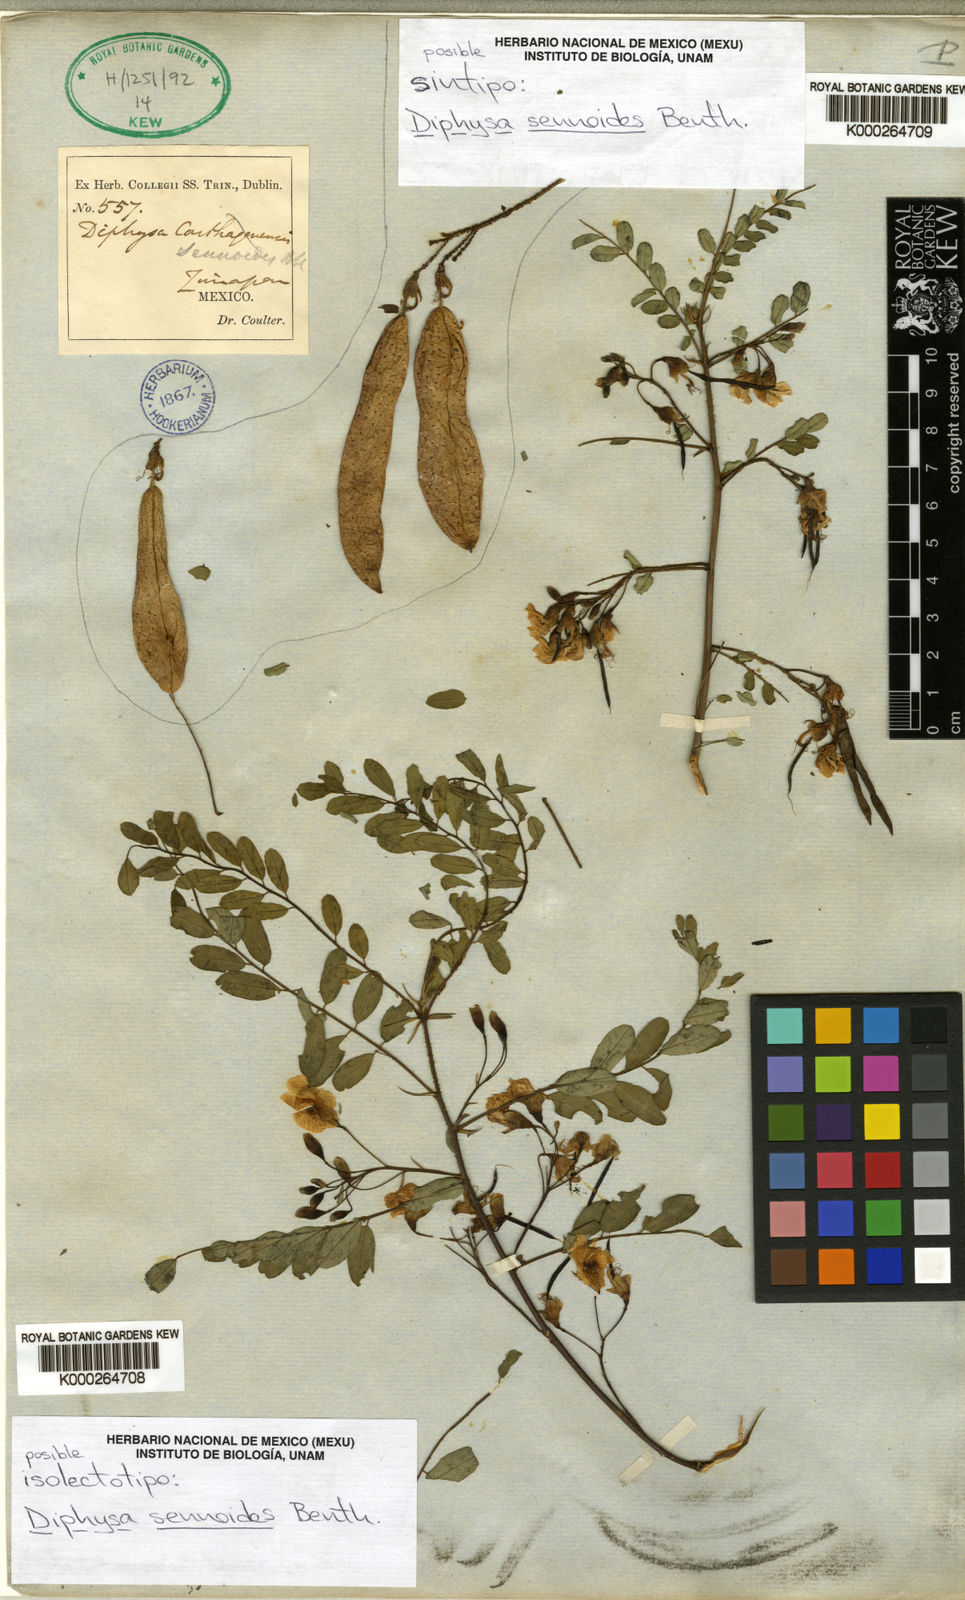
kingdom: Plantae
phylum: Tracheophyta
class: Magnoliopsida
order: Fabales
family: Fabaceae
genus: Diphysa
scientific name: Diphysa sennoides
